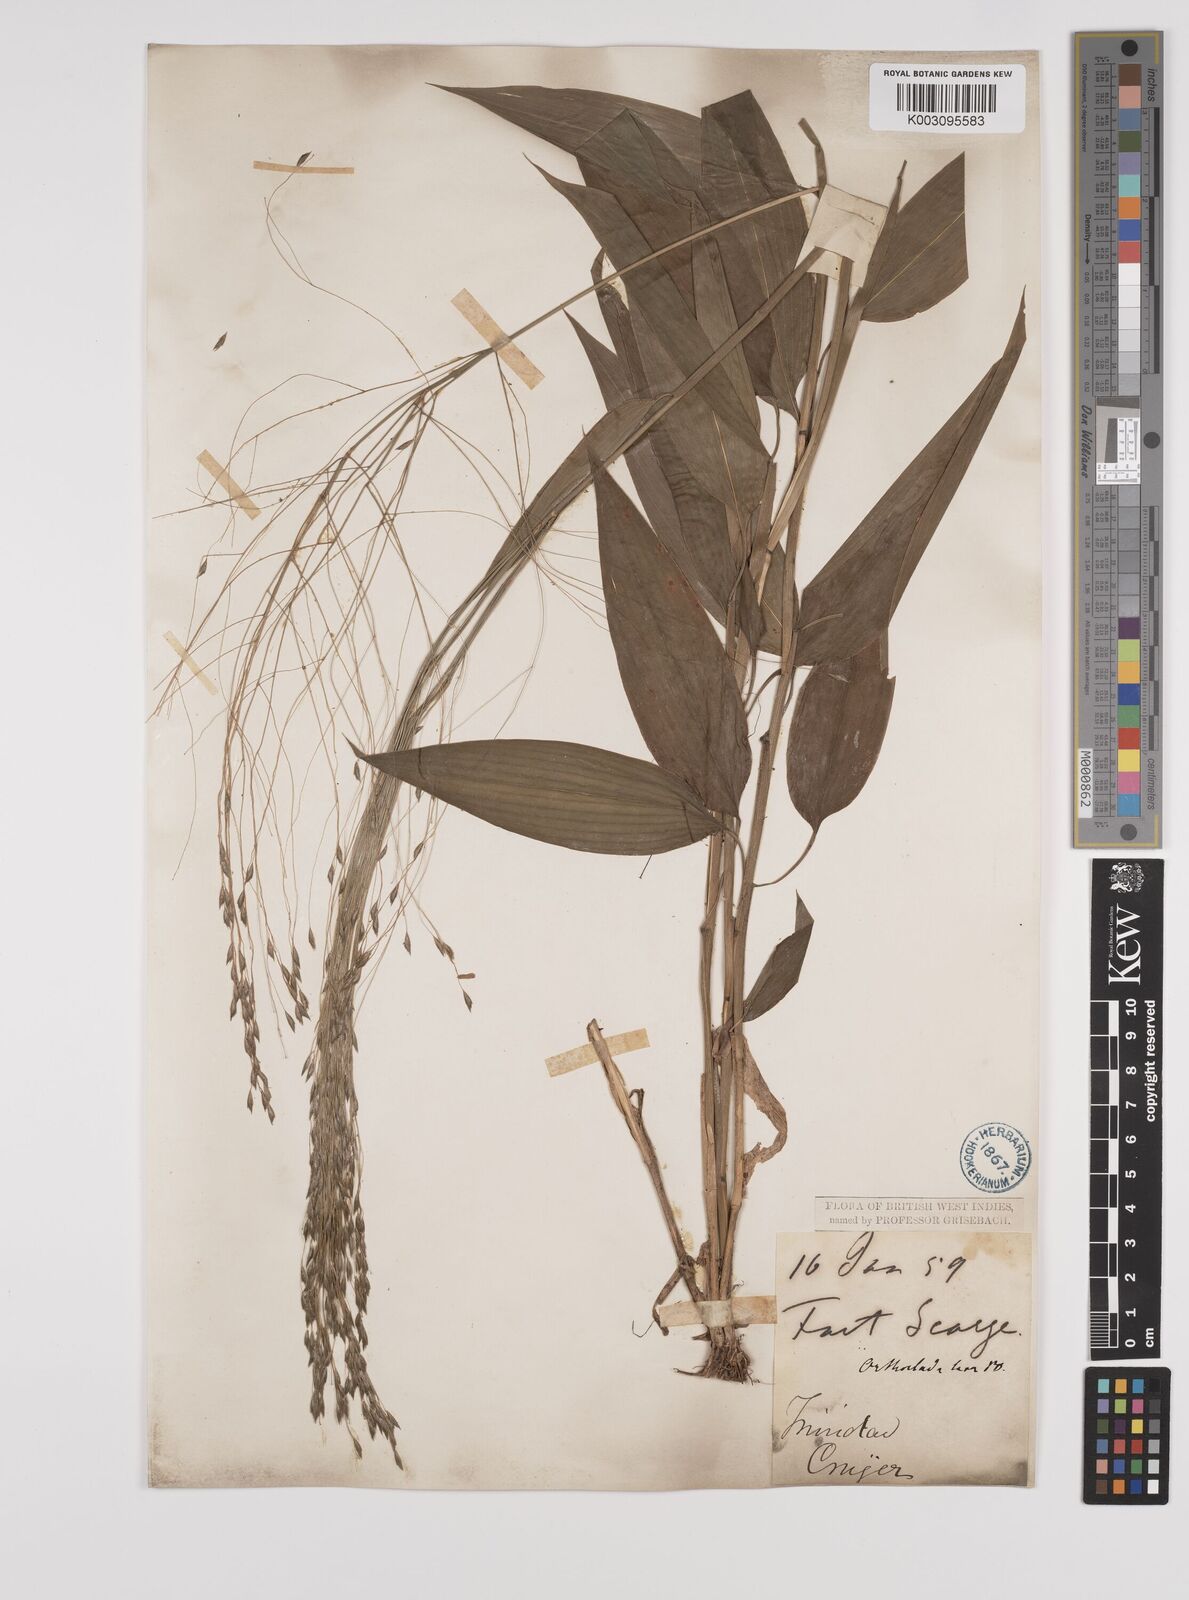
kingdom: Plantae
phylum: Tracheophyta
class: Liliopsida
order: Poales
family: Poaceae
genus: Orthoclada
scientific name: Orthoclada laxa
